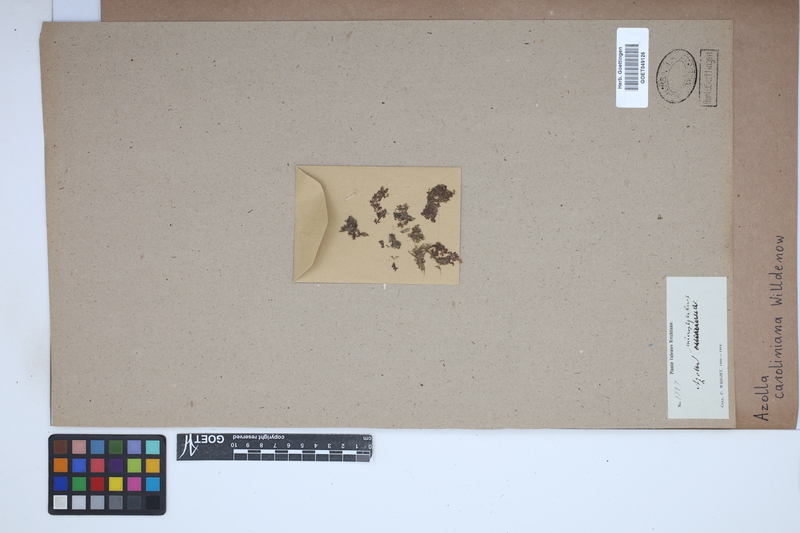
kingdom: Plantae
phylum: Tracheophyta
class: Polypodiopsida
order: Salviniales
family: Salviniaceae
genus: Azolla
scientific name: Azolla caroliniana
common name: Carolina mosquitofern
